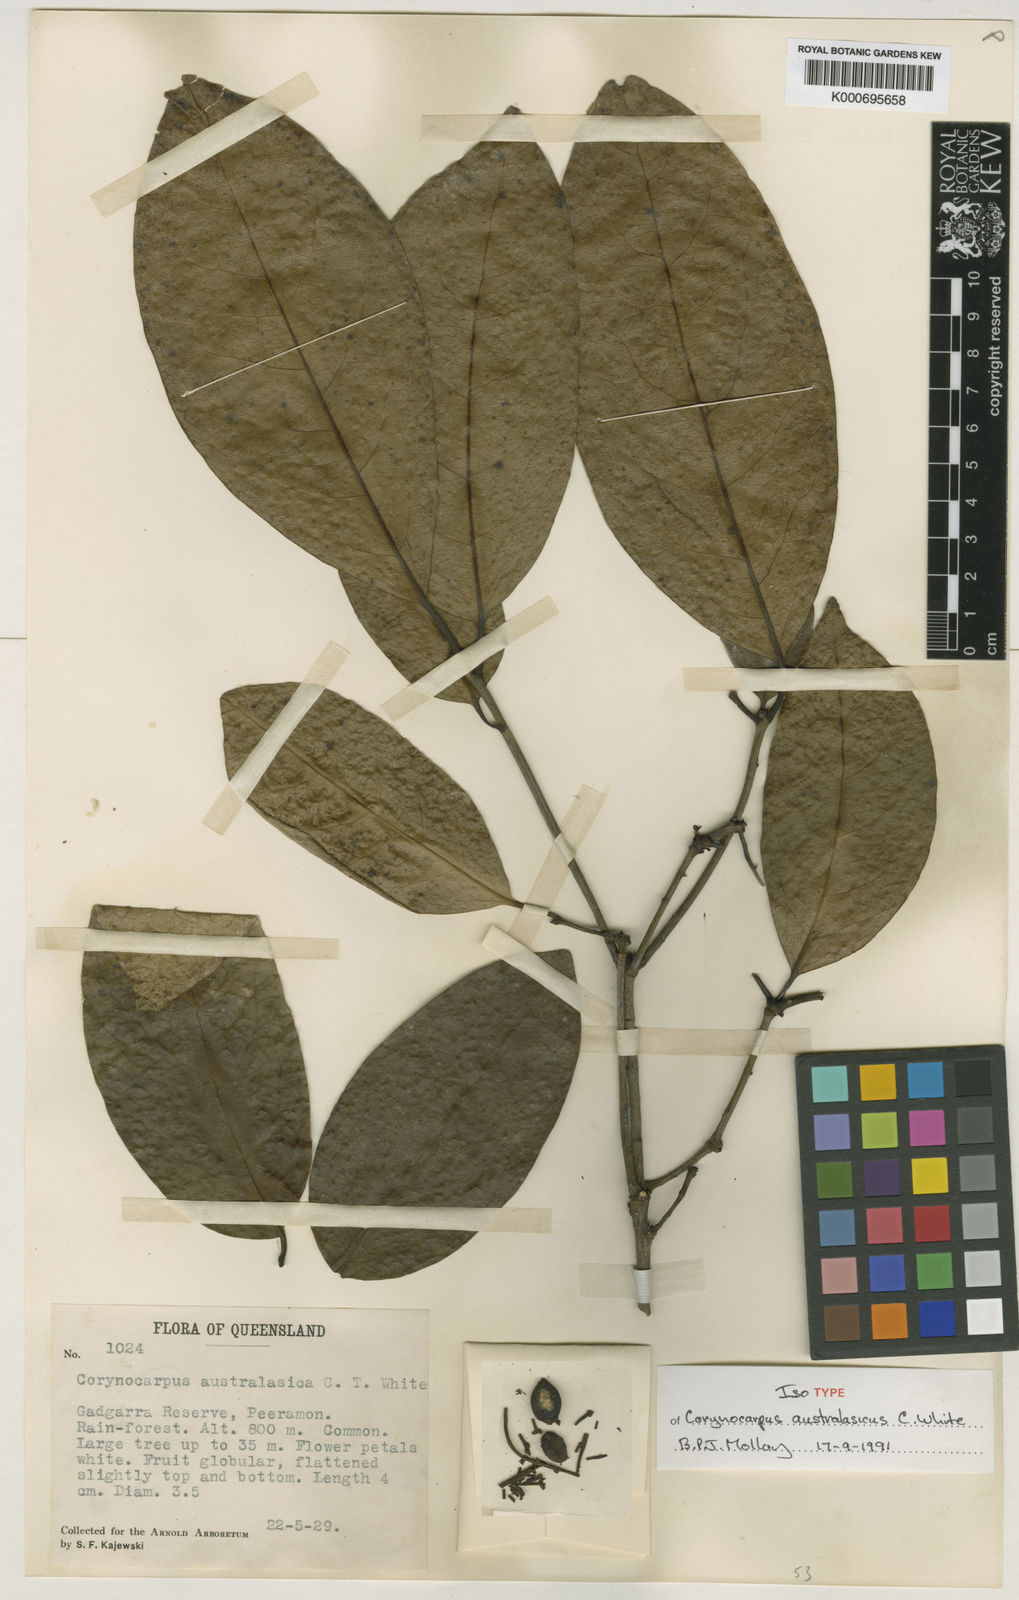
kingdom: Plantae
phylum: Tracheophyta
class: Magnoliopsida
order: Cucurbitales
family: Corynocarpaceae
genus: Corynocarpus
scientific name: Corynocarpus cribbianus
